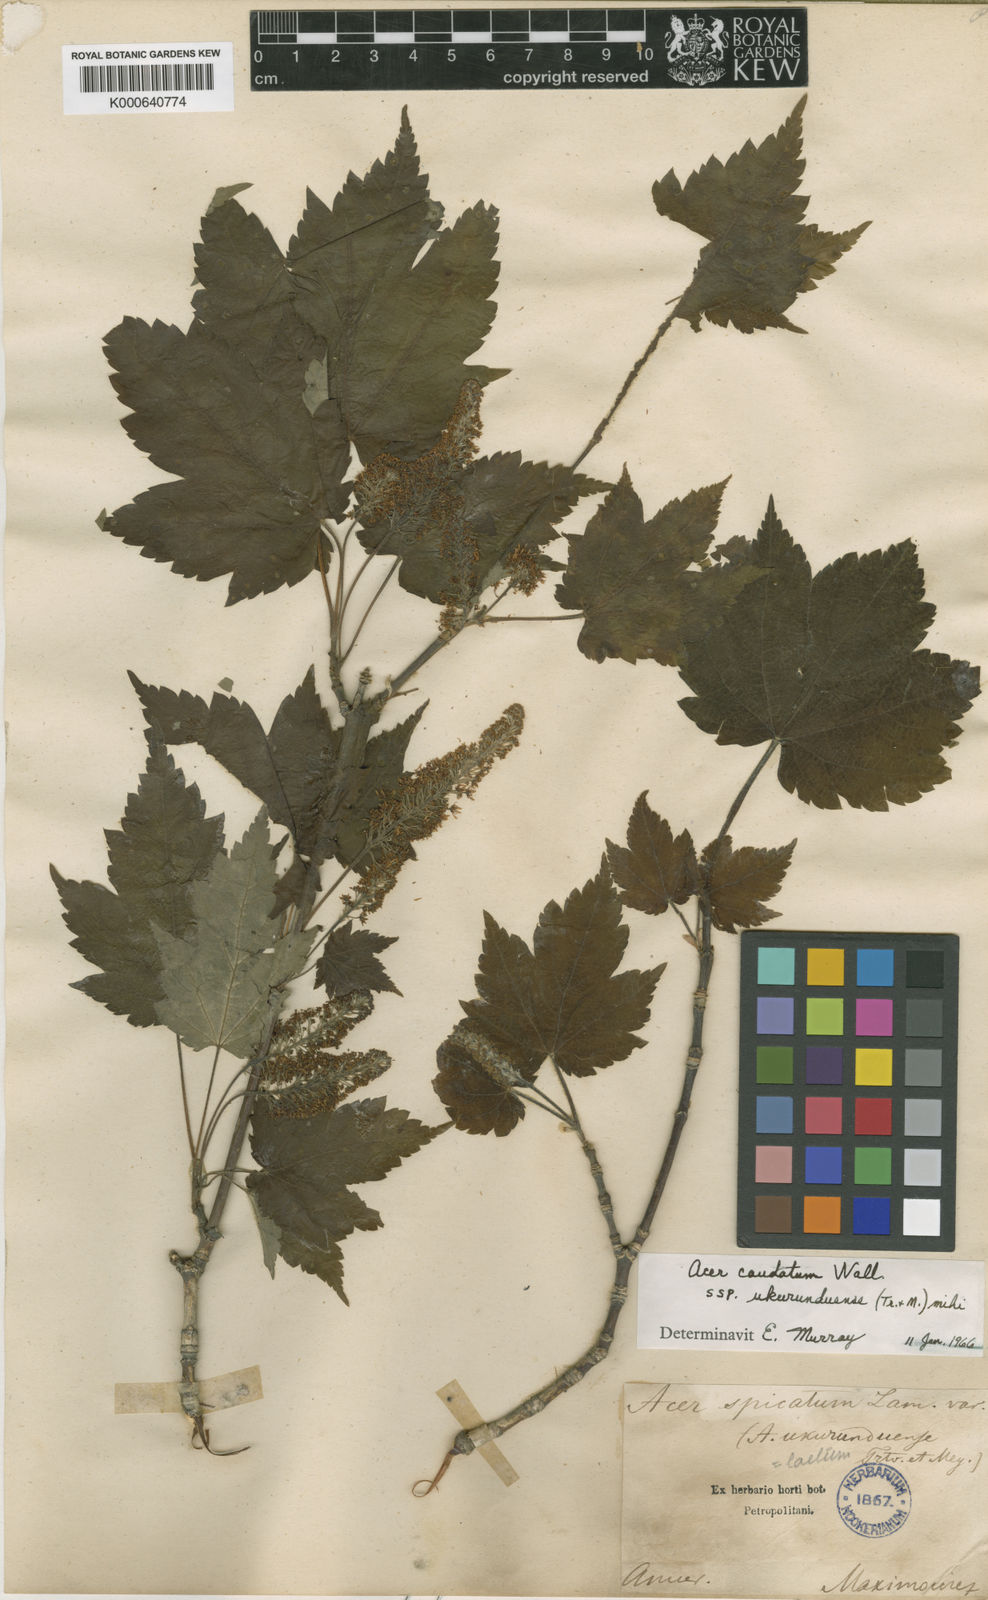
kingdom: Plantae
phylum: Tracheophyta
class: Magnoliopsida
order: Sapindales
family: Sapindaceae
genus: Acer
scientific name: Acer caudatum
